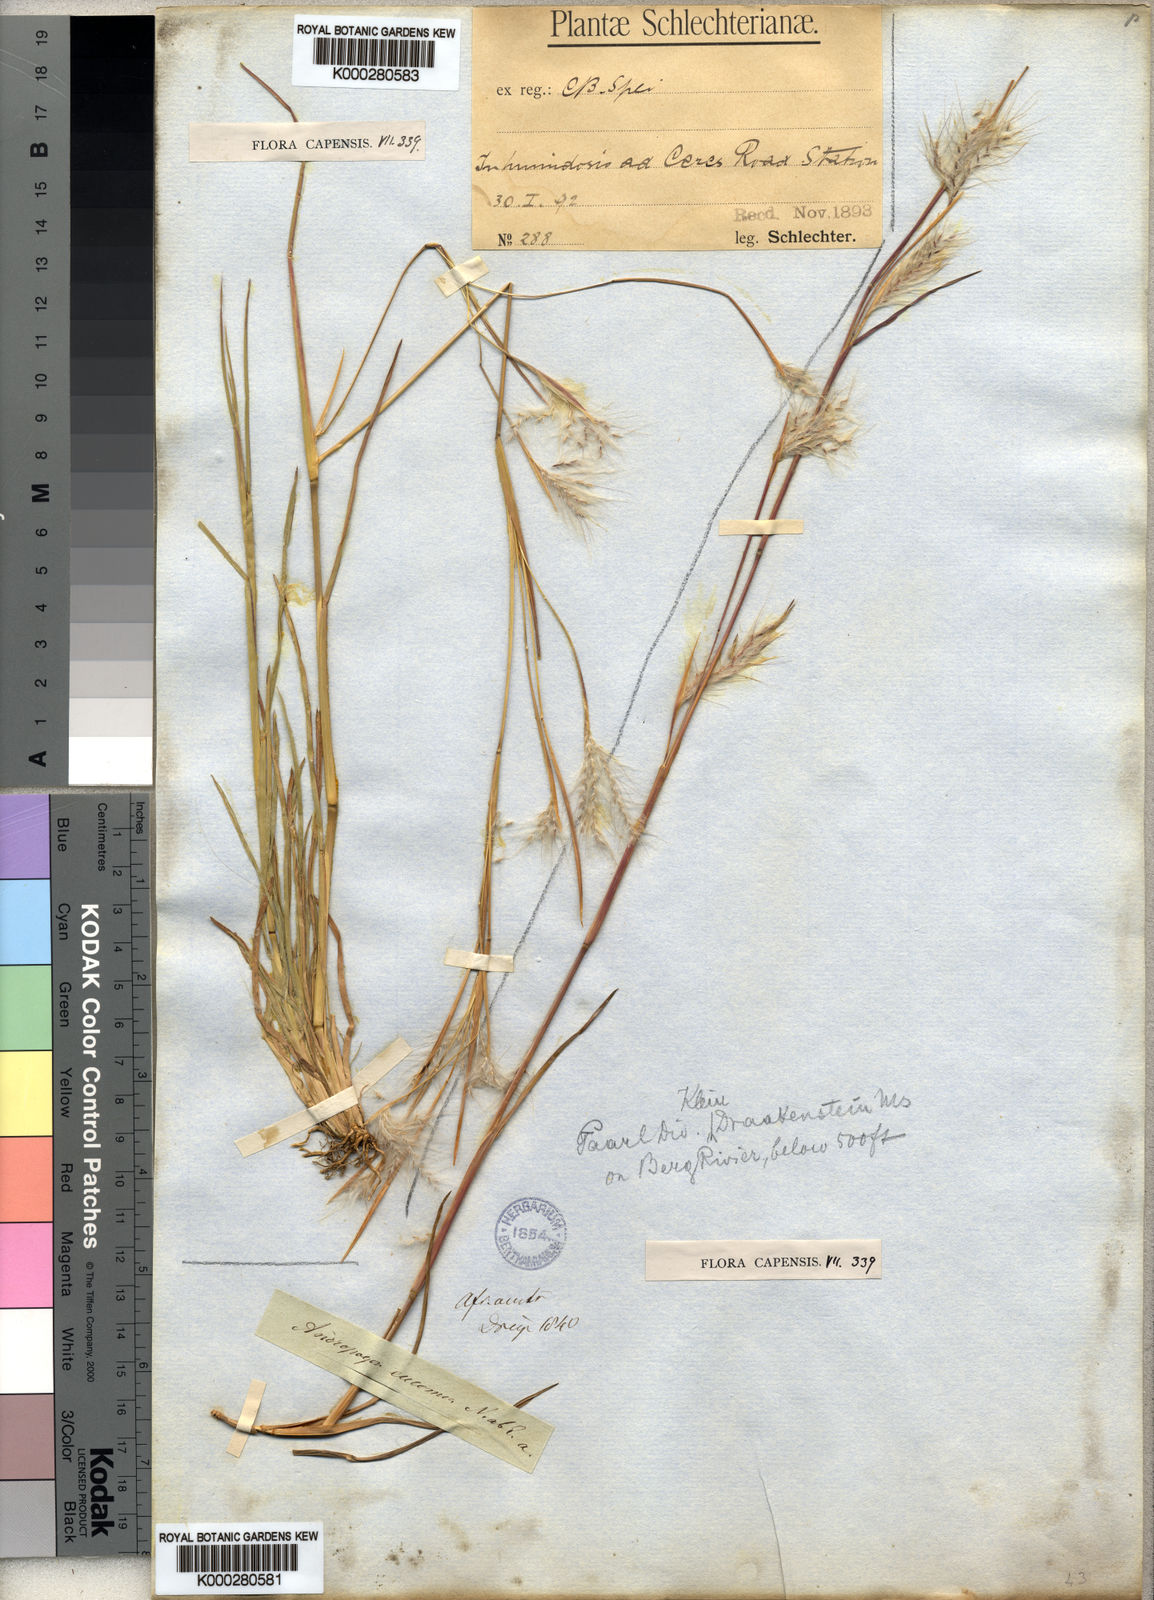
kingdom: Plantae
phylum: Tracheophyta
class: Liliopsida
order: Poales
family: Poaceae
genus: Andropogon
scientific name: Andropogon eucomus
